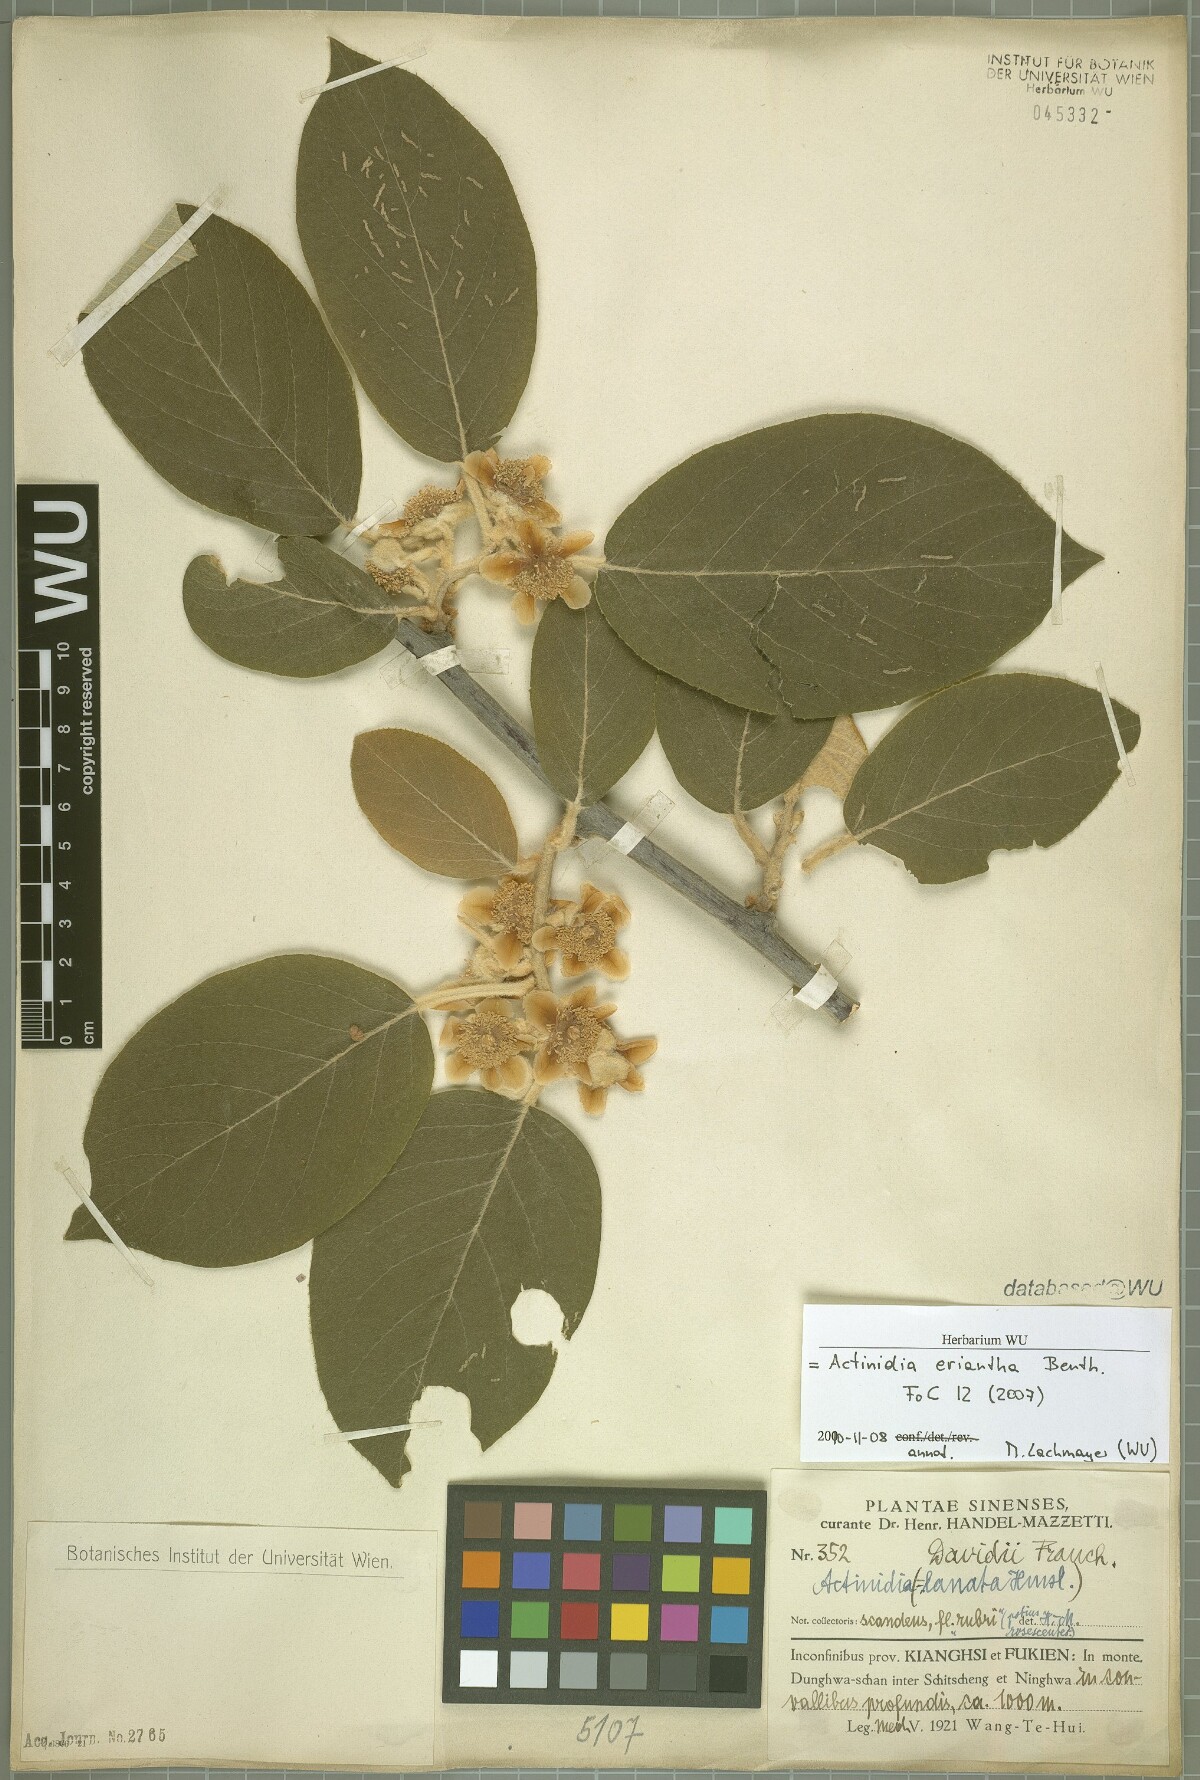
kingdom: Plantae
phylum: Tracheophyta
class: Magnoliopsida
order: Ericales
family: Actinidiaceae
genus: Actinidia
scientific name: Actinidia eriantha
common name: Velvetvine
